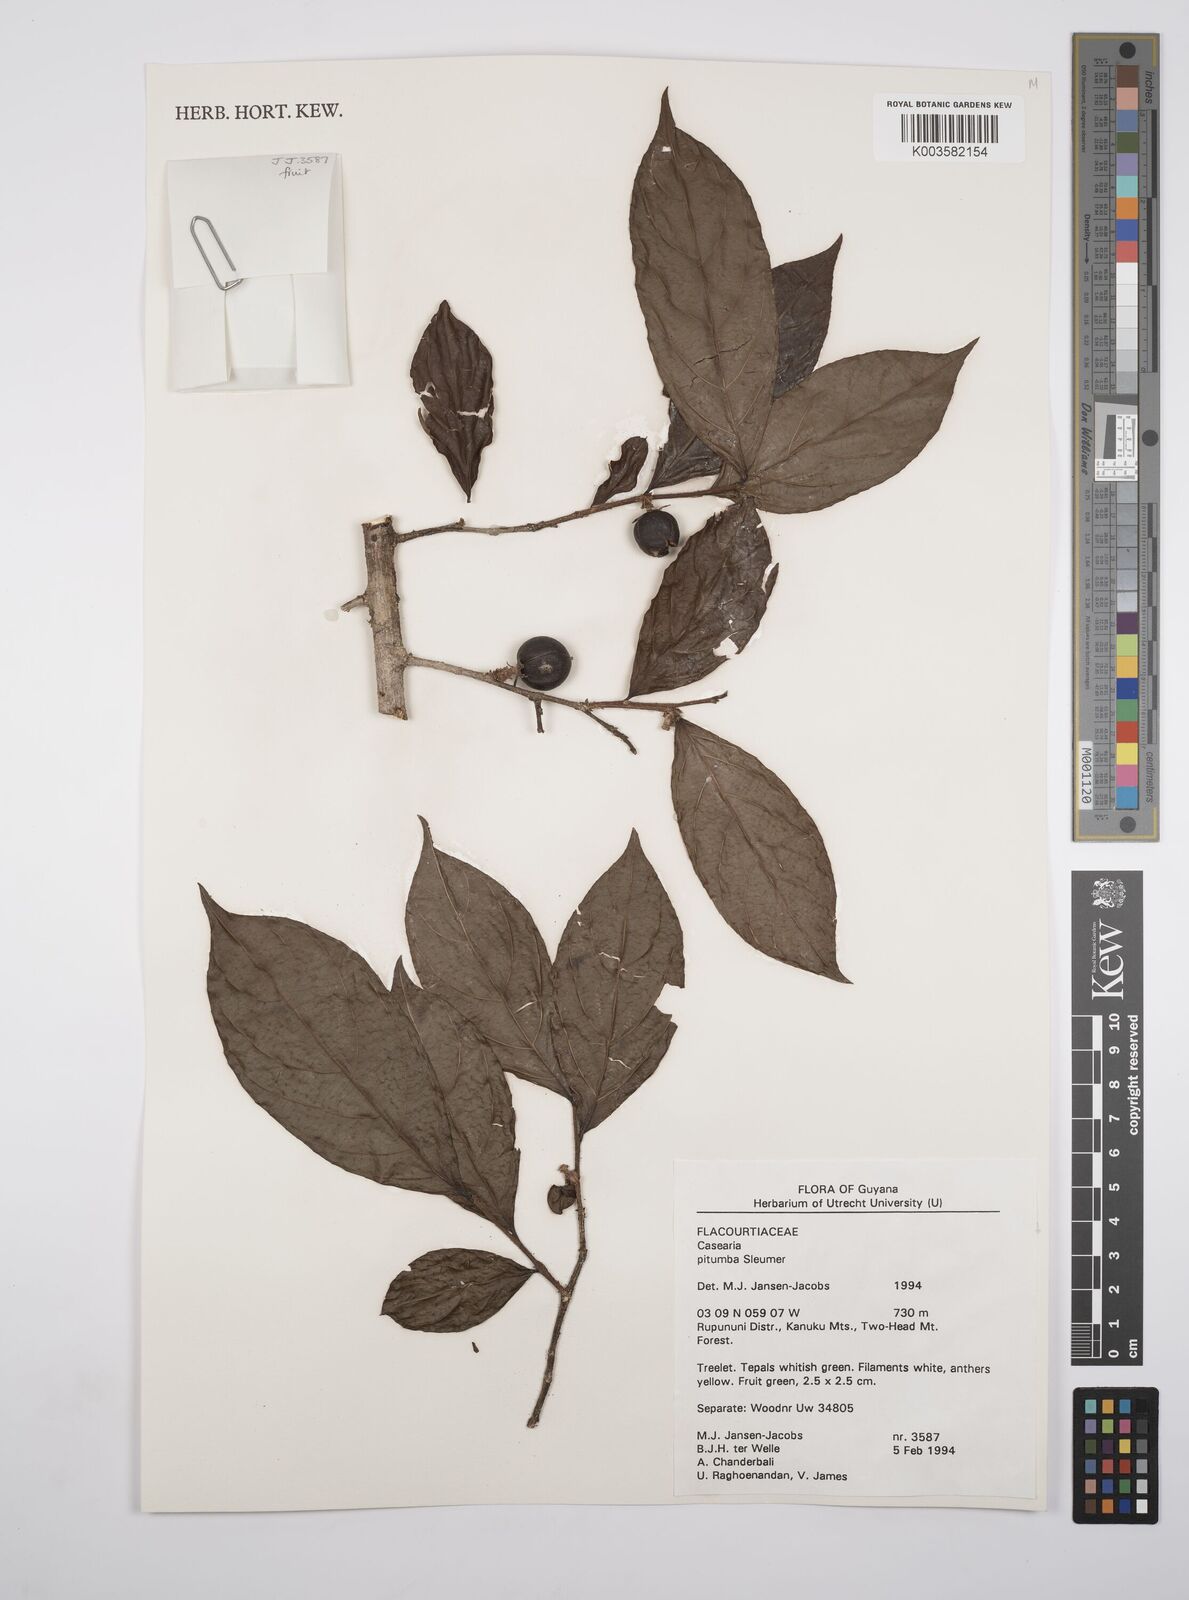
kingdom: Plantae
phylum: Tracheophyta
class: Magnoliopsida
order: Malpighiales
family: Salicaceae
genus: Casearia
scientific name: Casearia pitumba
